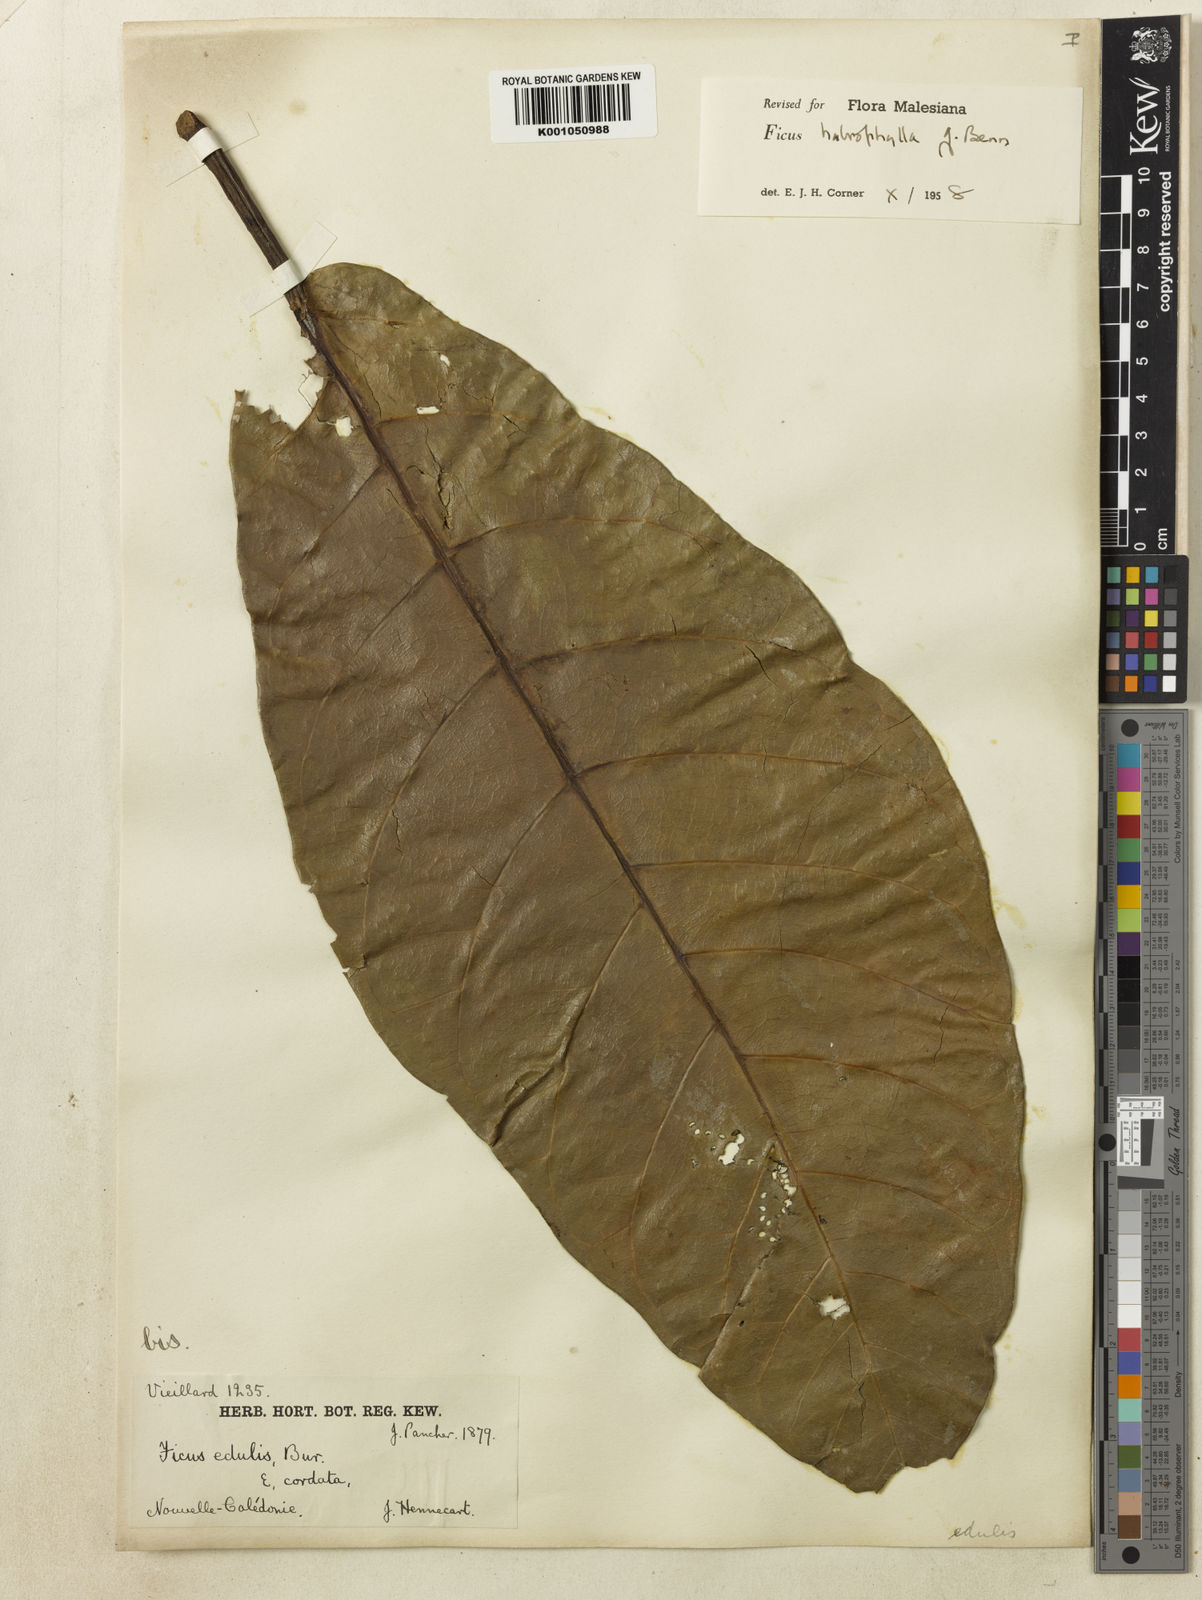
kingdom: Plantae
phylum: Tracheophyta
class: Magnoliopsida
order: Rosales
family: Moraceae
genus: Ficus
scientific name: Ficus
